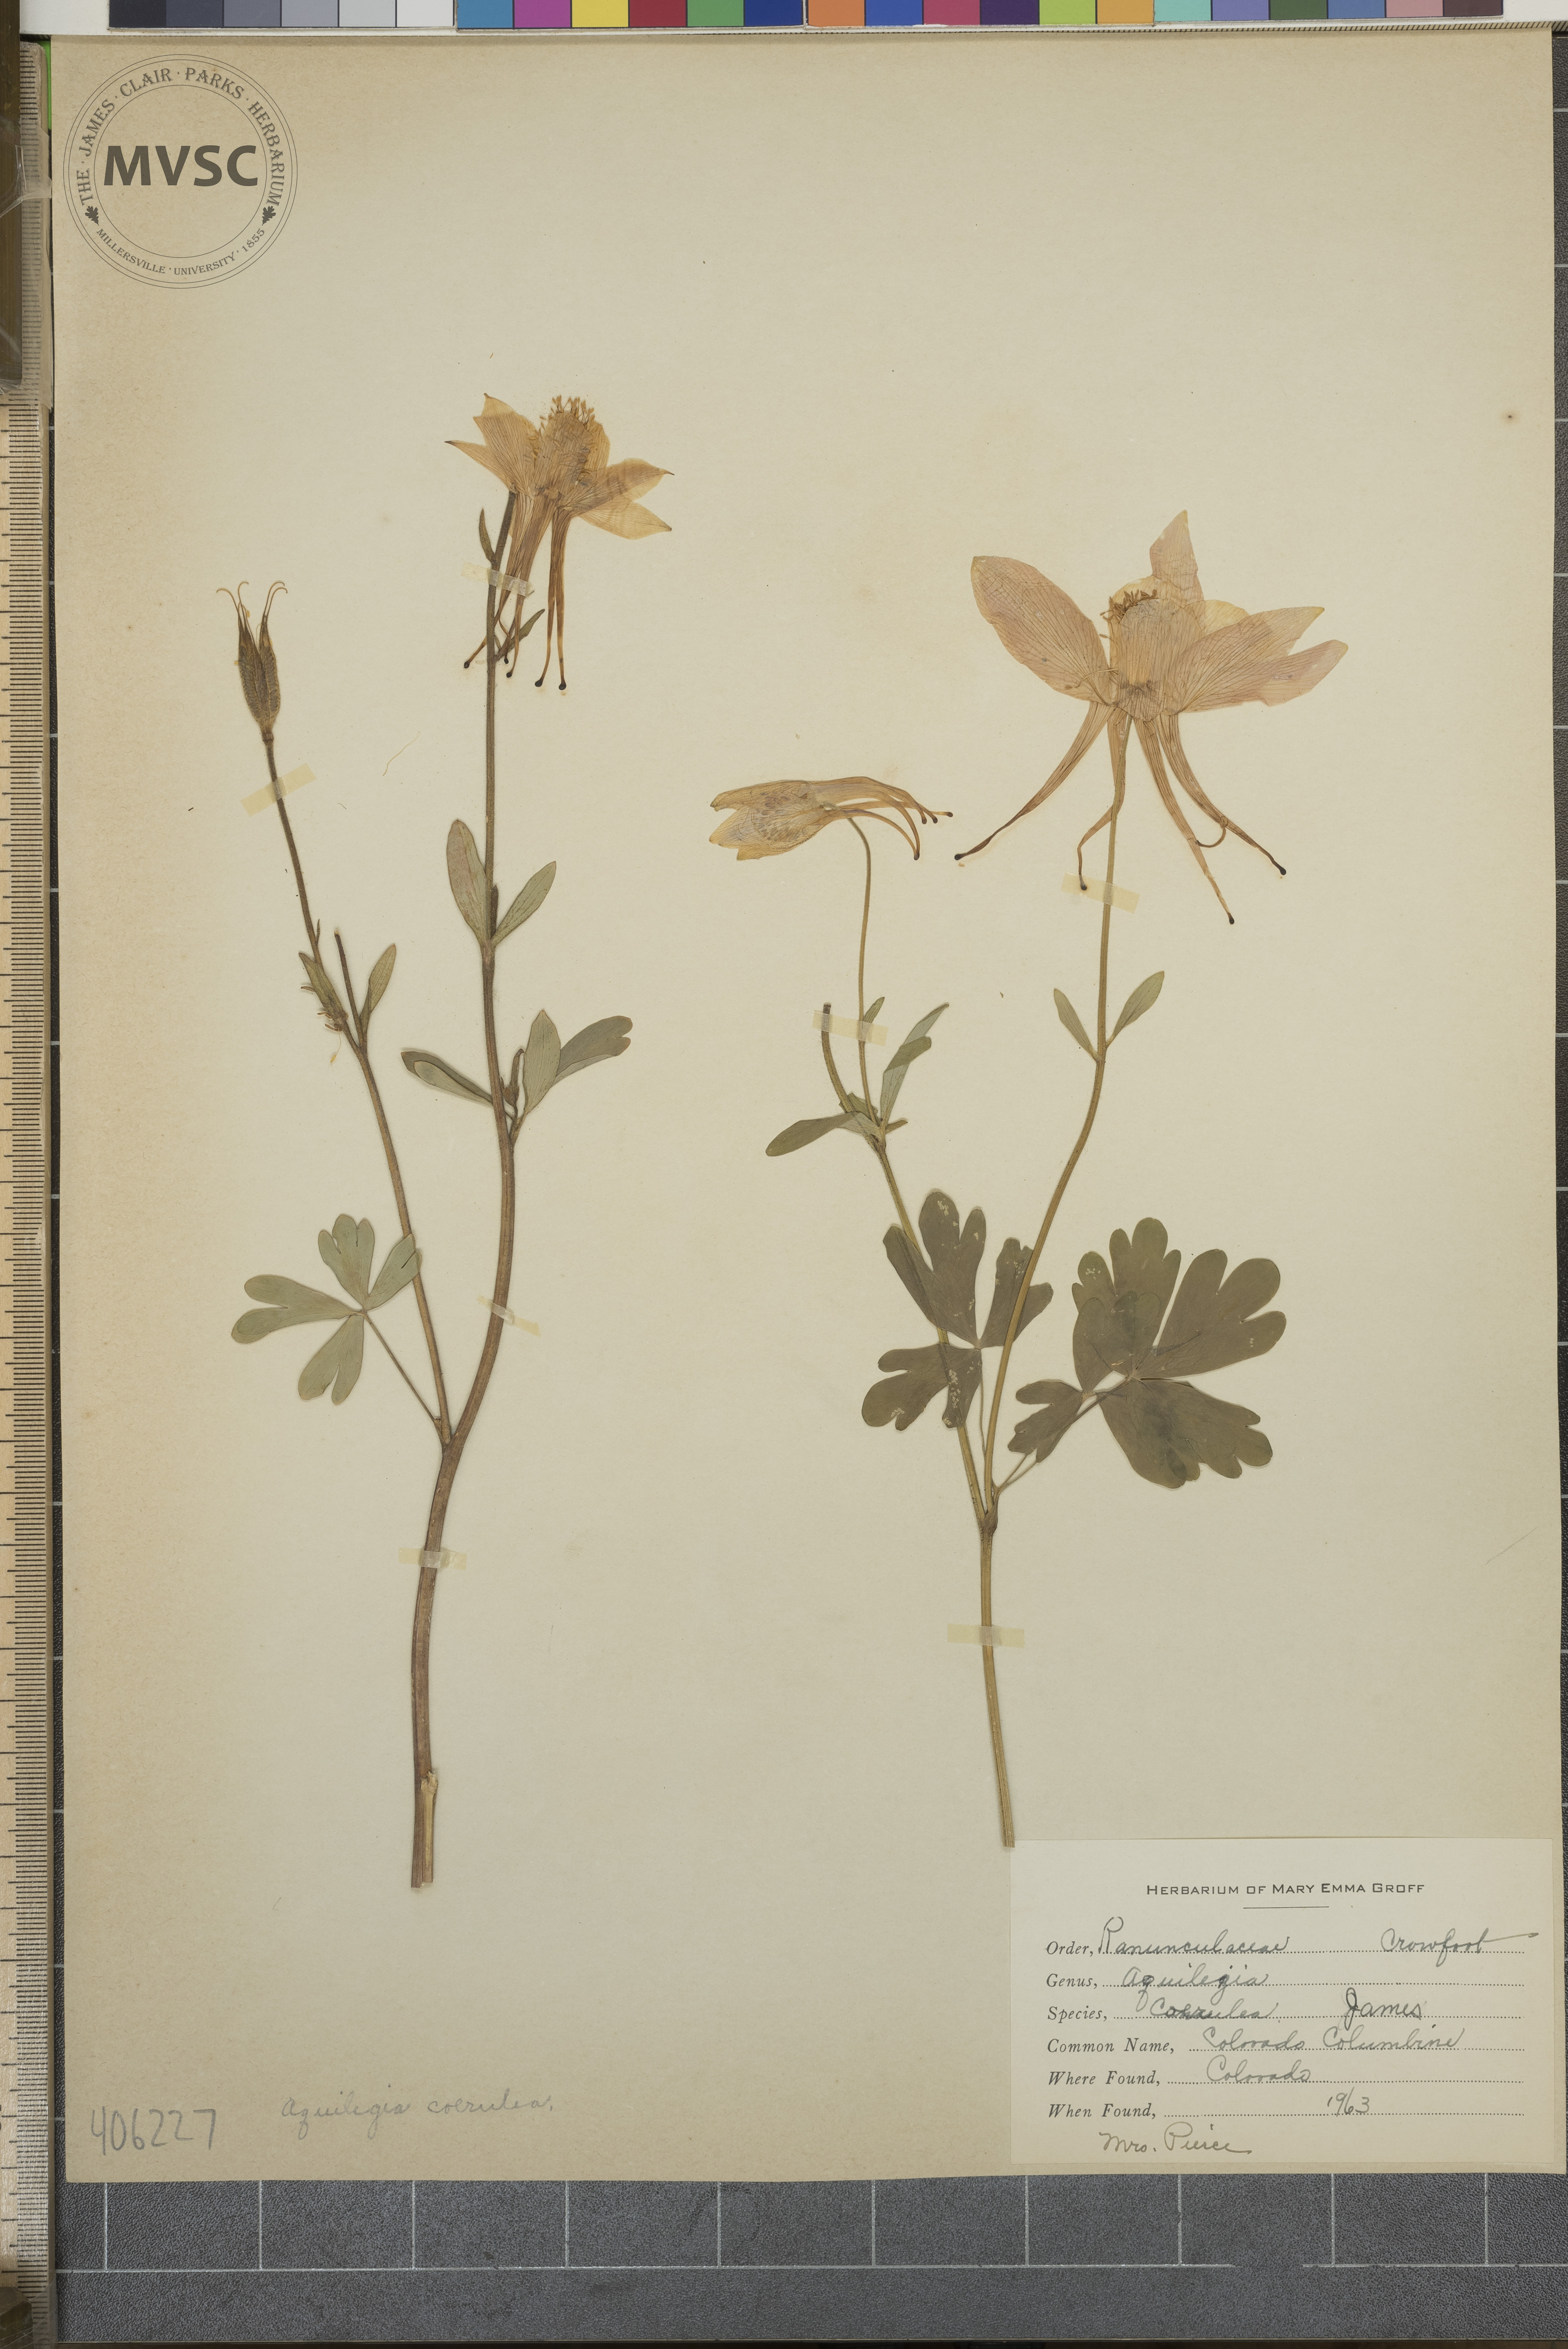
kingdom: Plantae
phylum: Tracheophyta
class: Magnoliopsida
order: Ranunculales
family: Ranunculaceae
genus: Aquilegia
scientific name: Aquilegia coerulea
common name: Colorado Columbine
